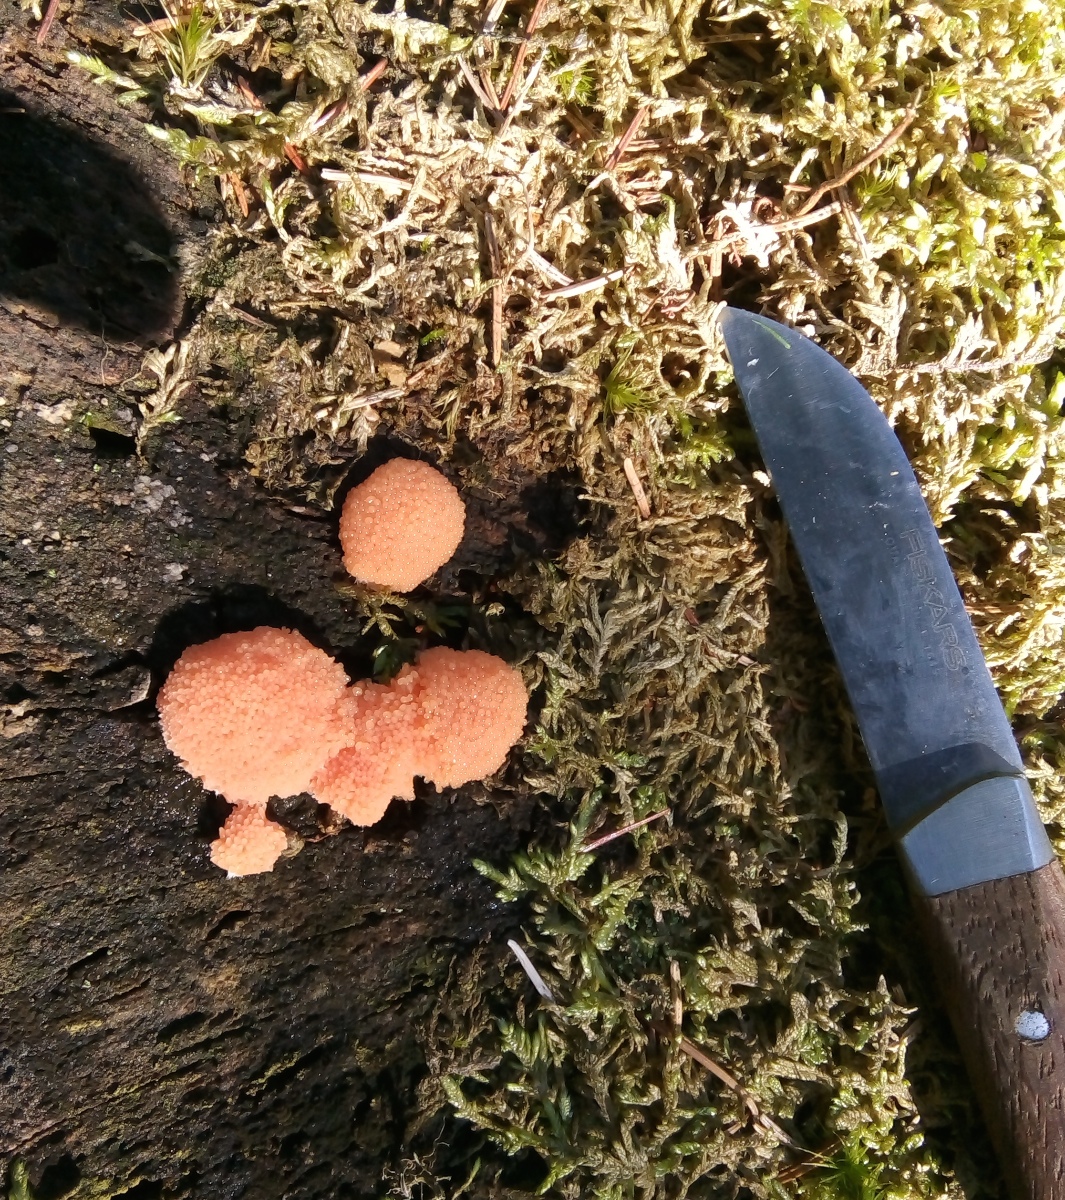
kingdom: Protozoa
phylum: Mycetozoa
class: Myxomycetes
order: Cribrariales
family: Tubiferaceae
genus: Tubifera
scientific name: Tubifera ferruginosa
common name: kanel-støvrør
